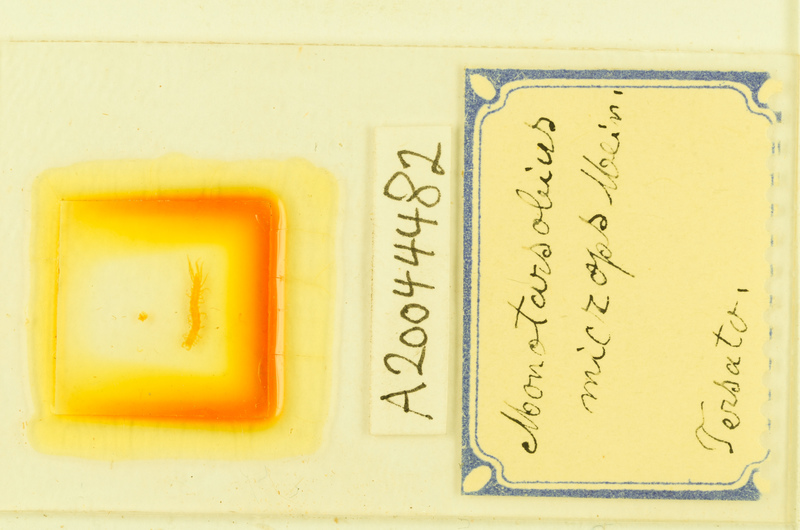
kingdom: Animalia
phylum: Arthropoda
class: Chilopoda
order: Lithobiomorpha
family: Lithobiidae
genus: Monotarsobius
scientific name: Monotarsobius microps
